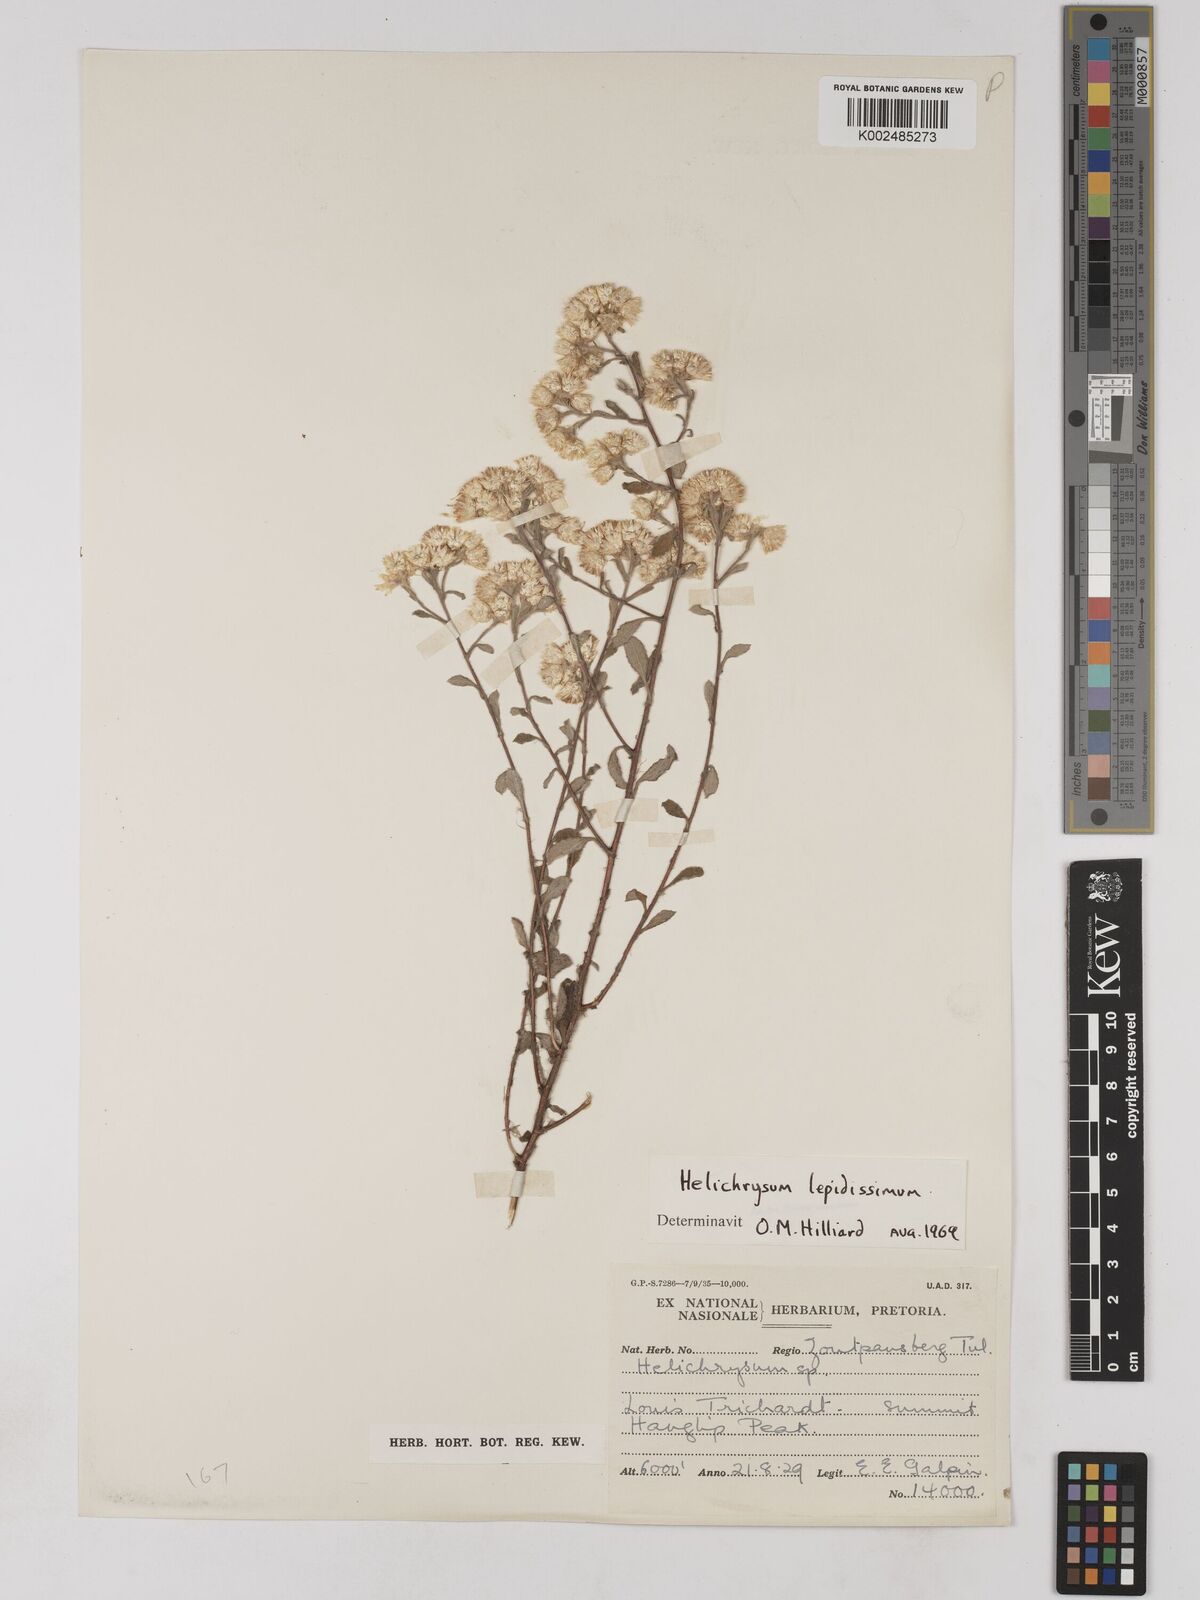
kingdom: Plantae
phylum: Tracheophyta
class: Magnoliopsida
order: Asterales
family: Asteraceae
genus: Helichrysum
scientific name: Helichrysum lepidissimum
